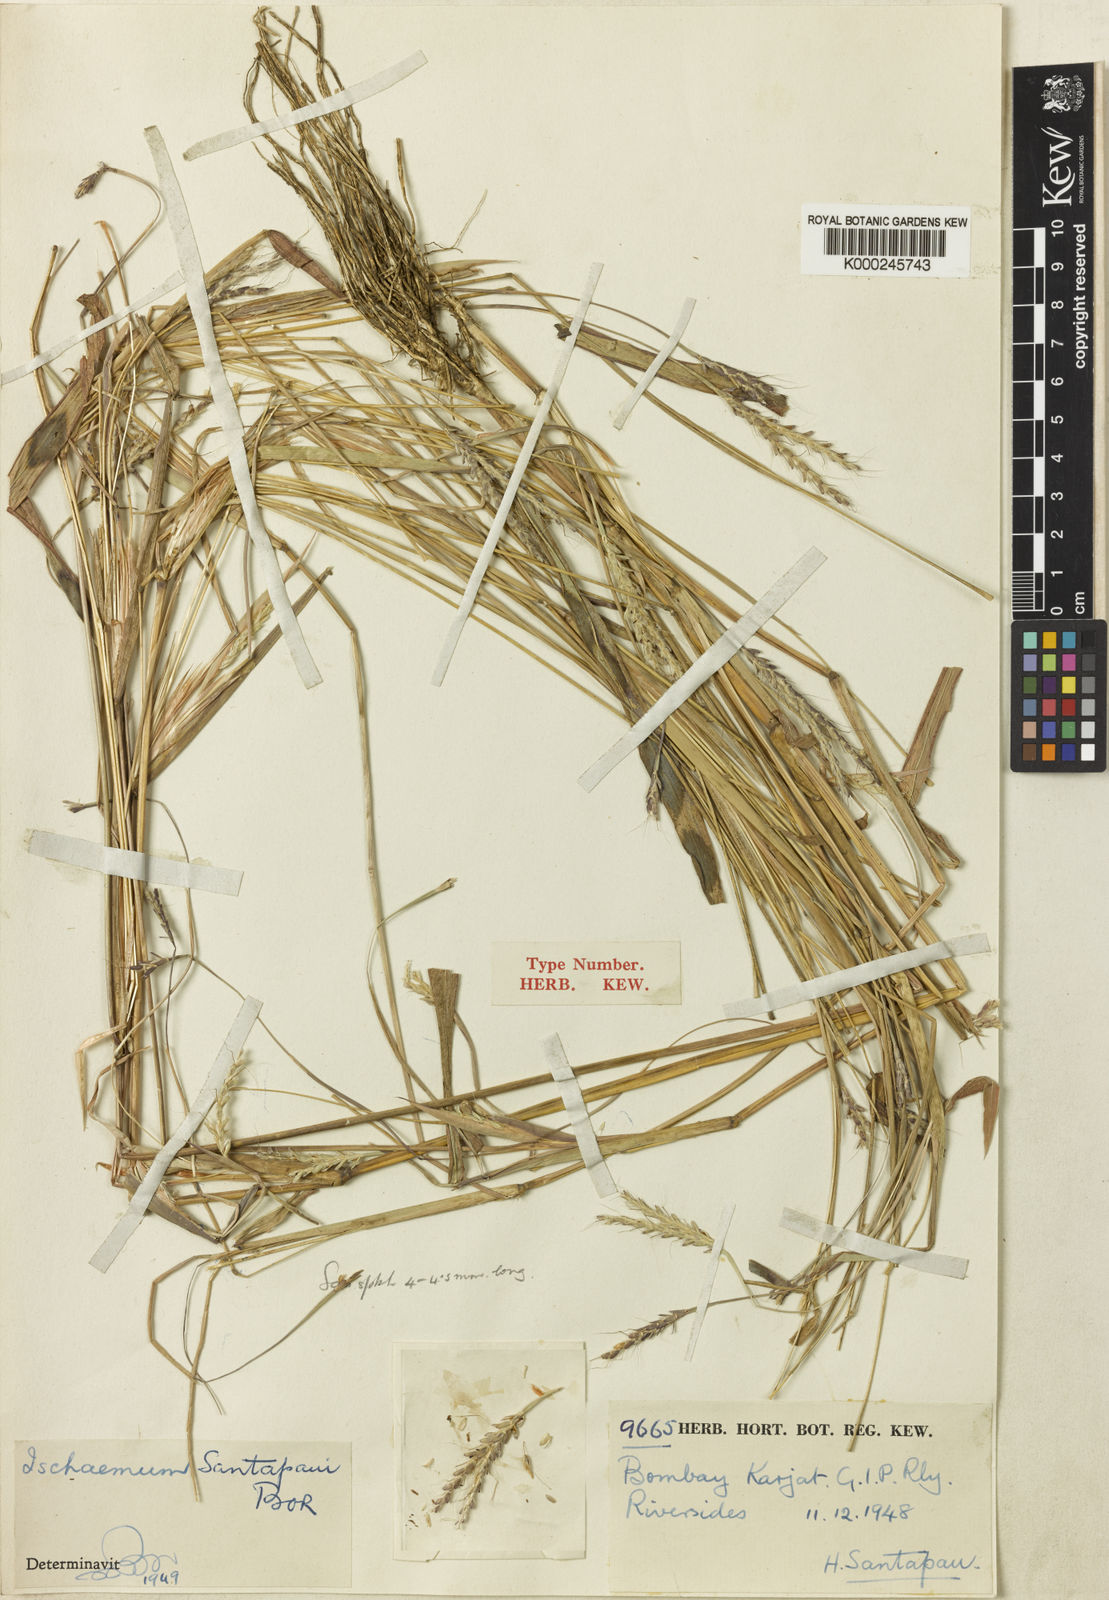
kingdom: Plantae
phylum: Tracheophyta
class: Liliopsida
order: Poales
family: Poaceae
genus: Ischaemum
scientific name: Ischaemum santapaui
